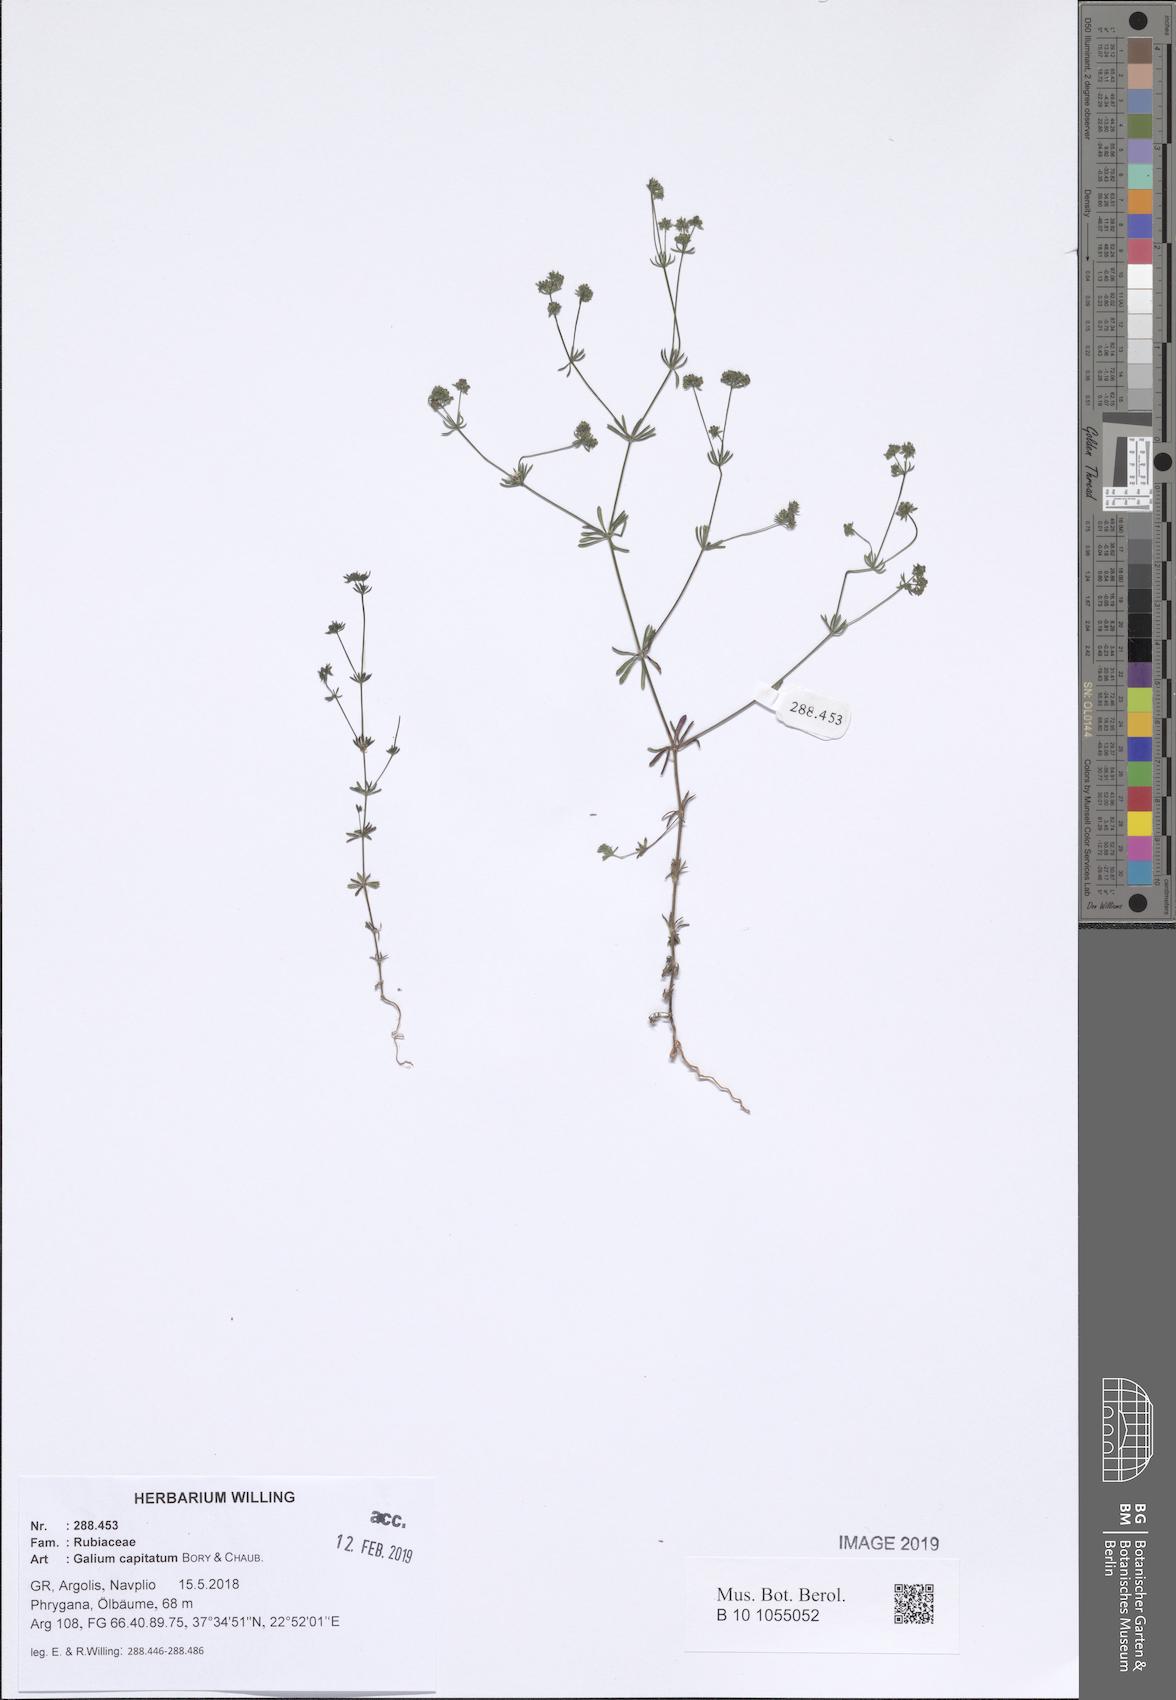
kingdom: Plantae
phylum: Tracheophyta
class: Magnoliopsida
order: Gentianales
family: Rubiaceae
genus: Galium
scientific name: Galium capitatum
